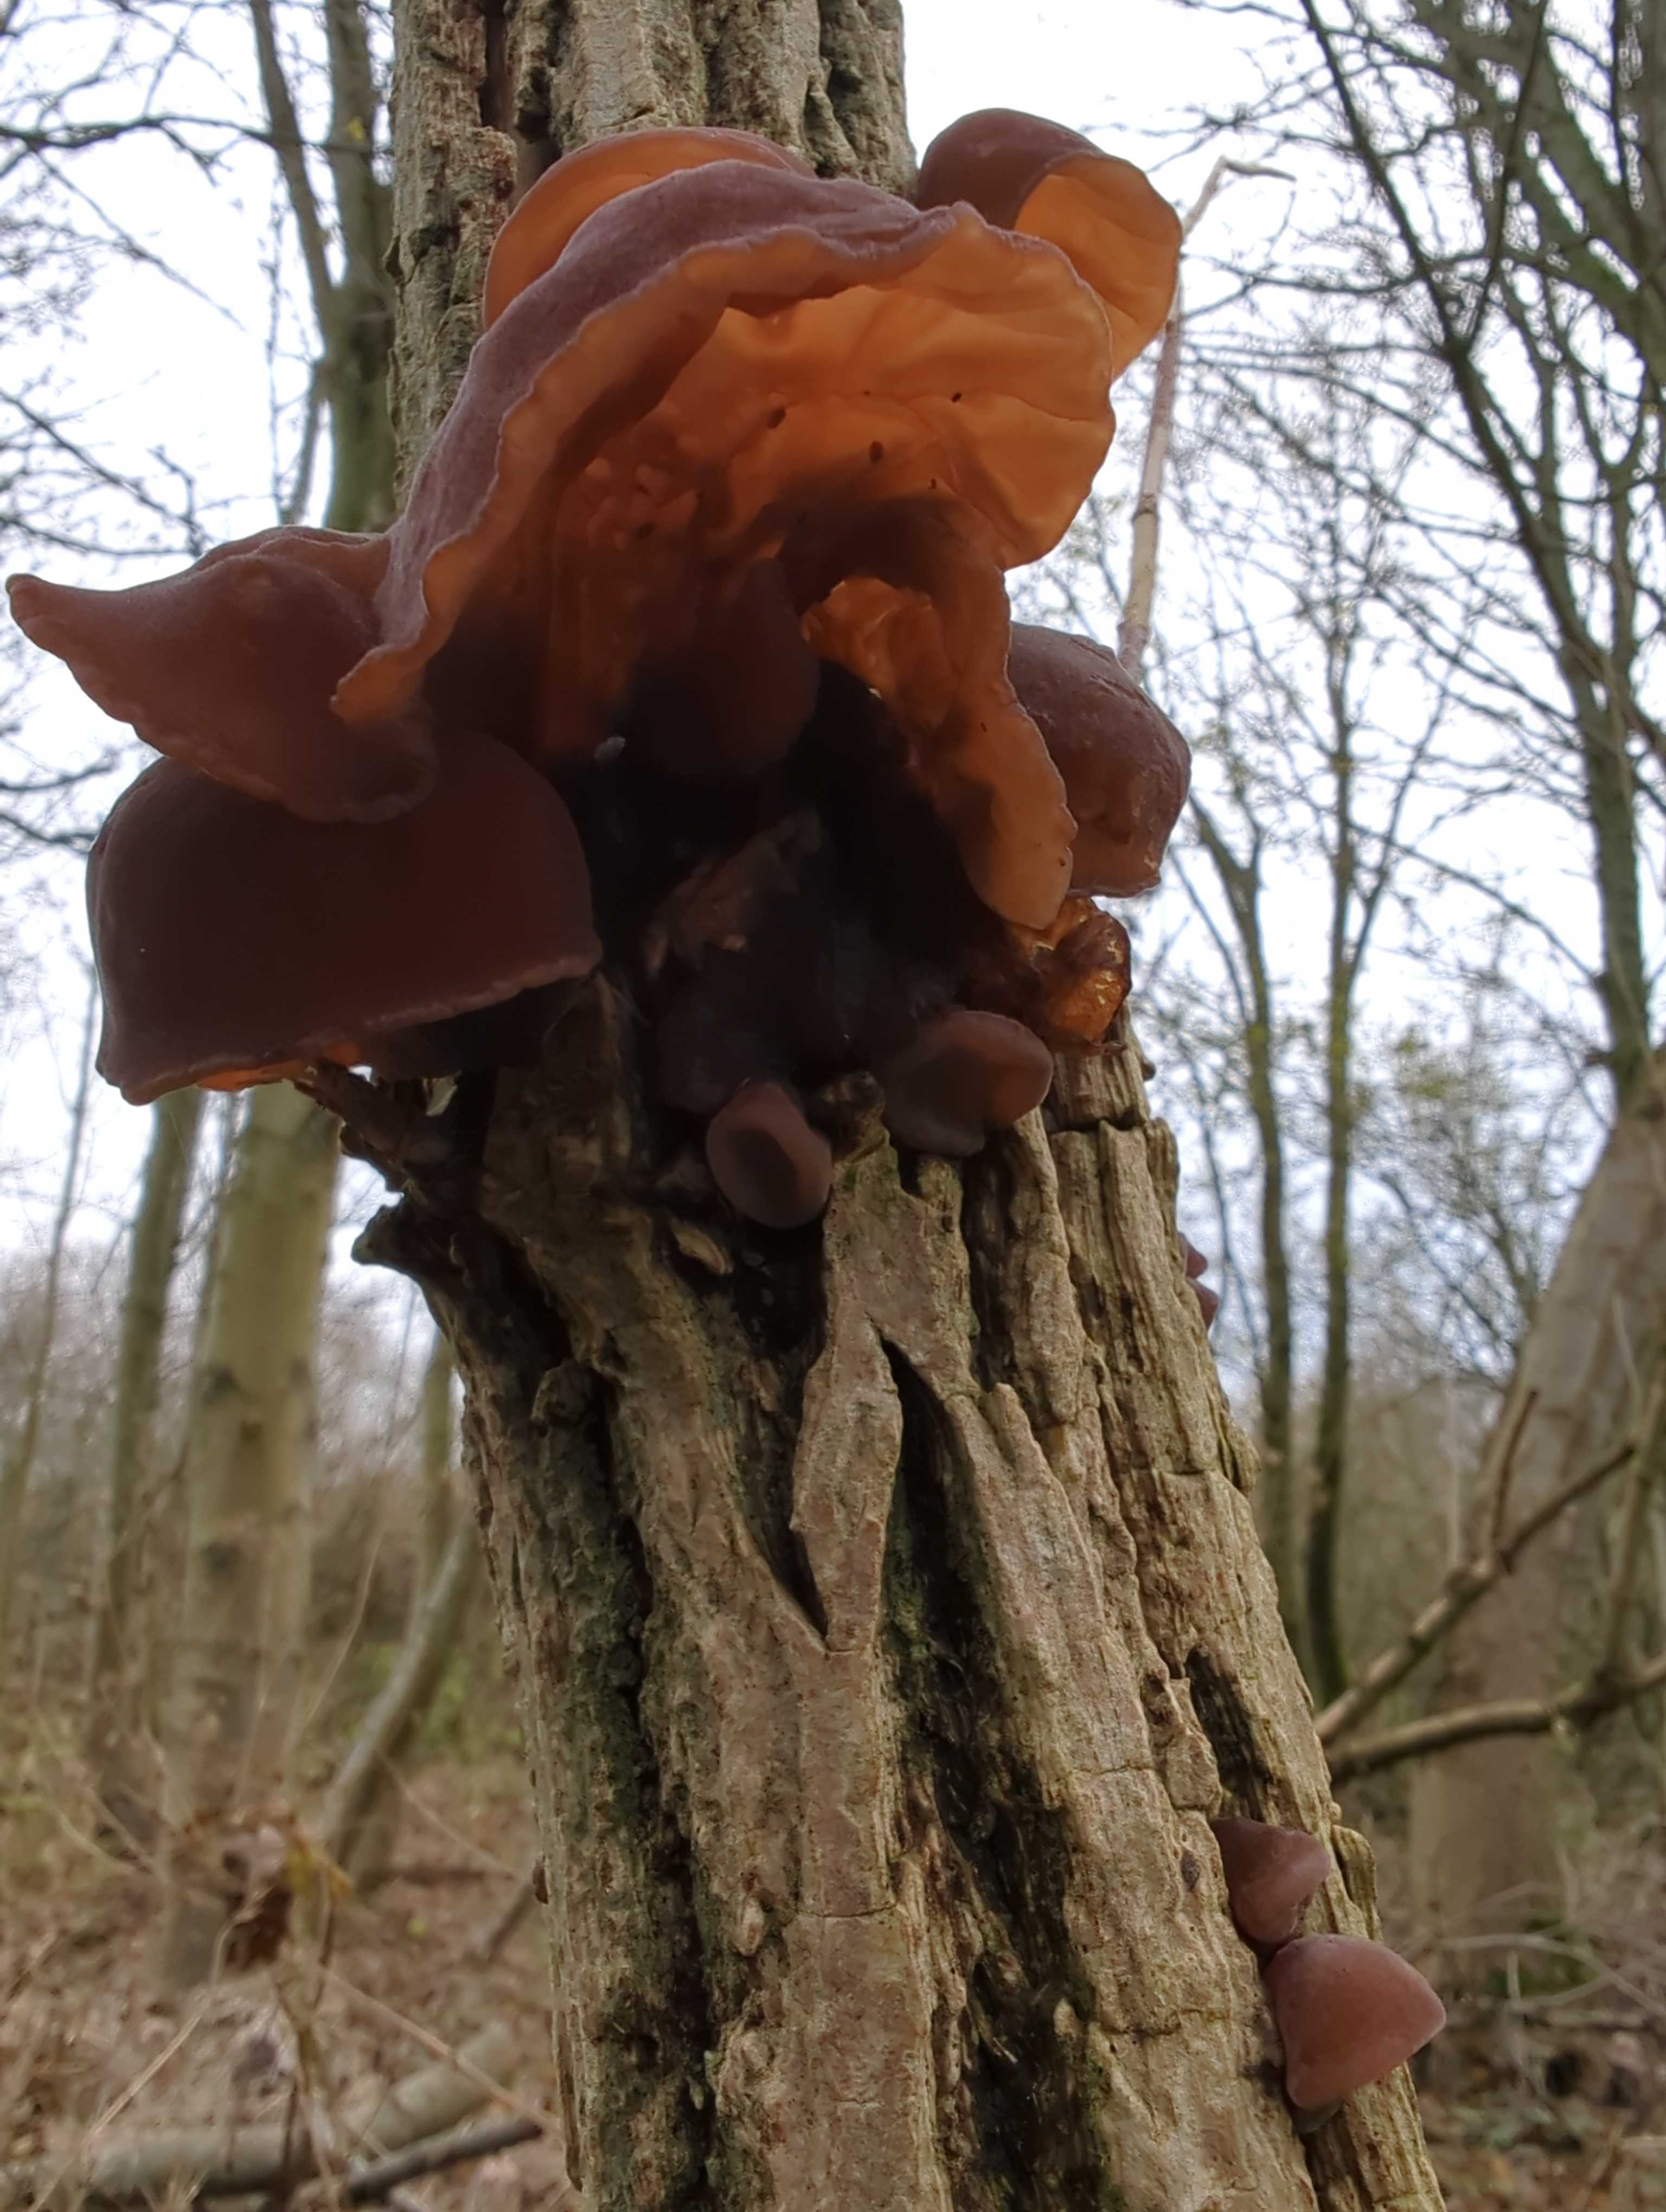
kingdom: Fungi
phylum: Basidiomycota
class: Agaricomycetes
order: Auriculariales
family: Auriculariaceae
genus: Auricularia
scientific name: Auricularia auricula-judae
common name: almindelig judasøre
